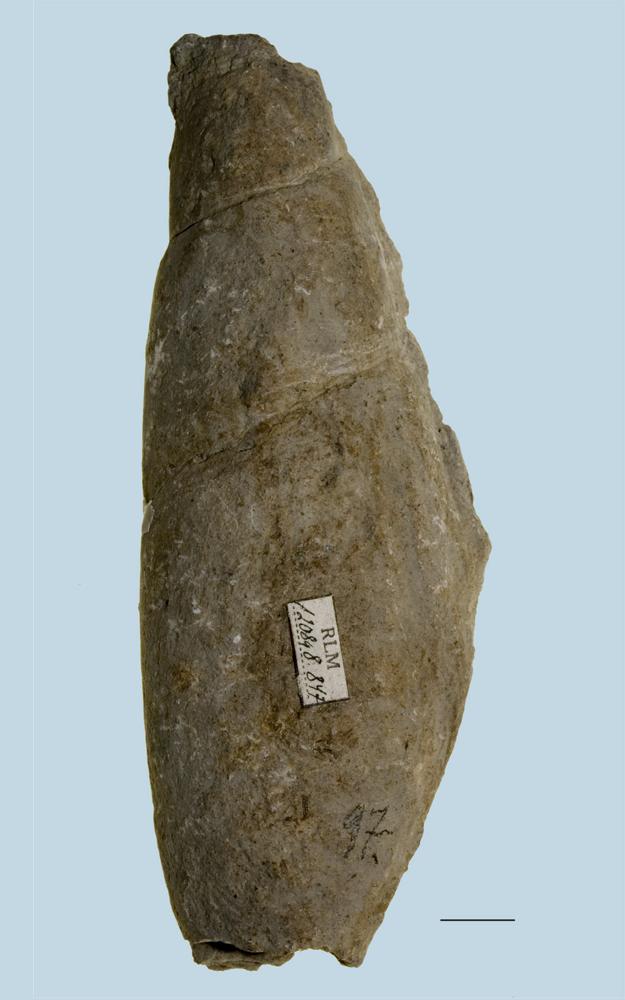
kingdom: Animalia
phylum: Mollusca
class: Gastropoda
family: Subulitidae
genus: Subulites
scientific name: Subulites Phasianella gigas
